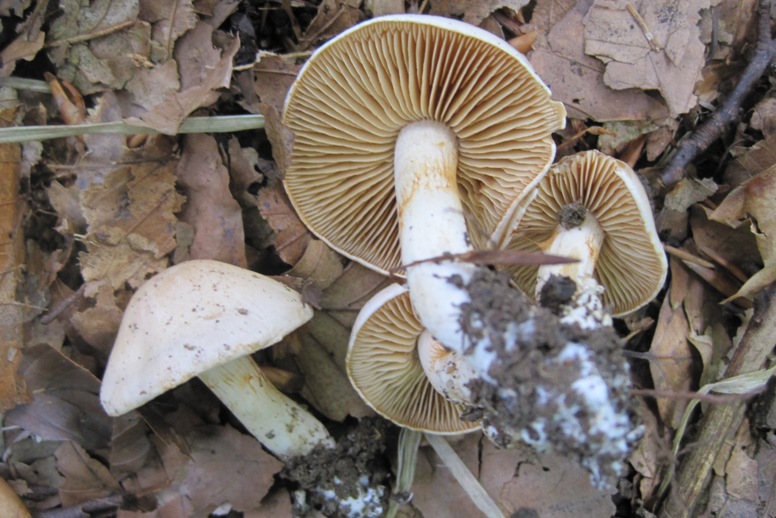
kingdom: Fungi
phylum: Basidiomycota
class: Agaricomycetes
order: Agaricales
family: Cortinariaceae
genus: Thaxterogaster
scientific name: Thaxterogaster barbatus
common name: elfenbens-slørhat
